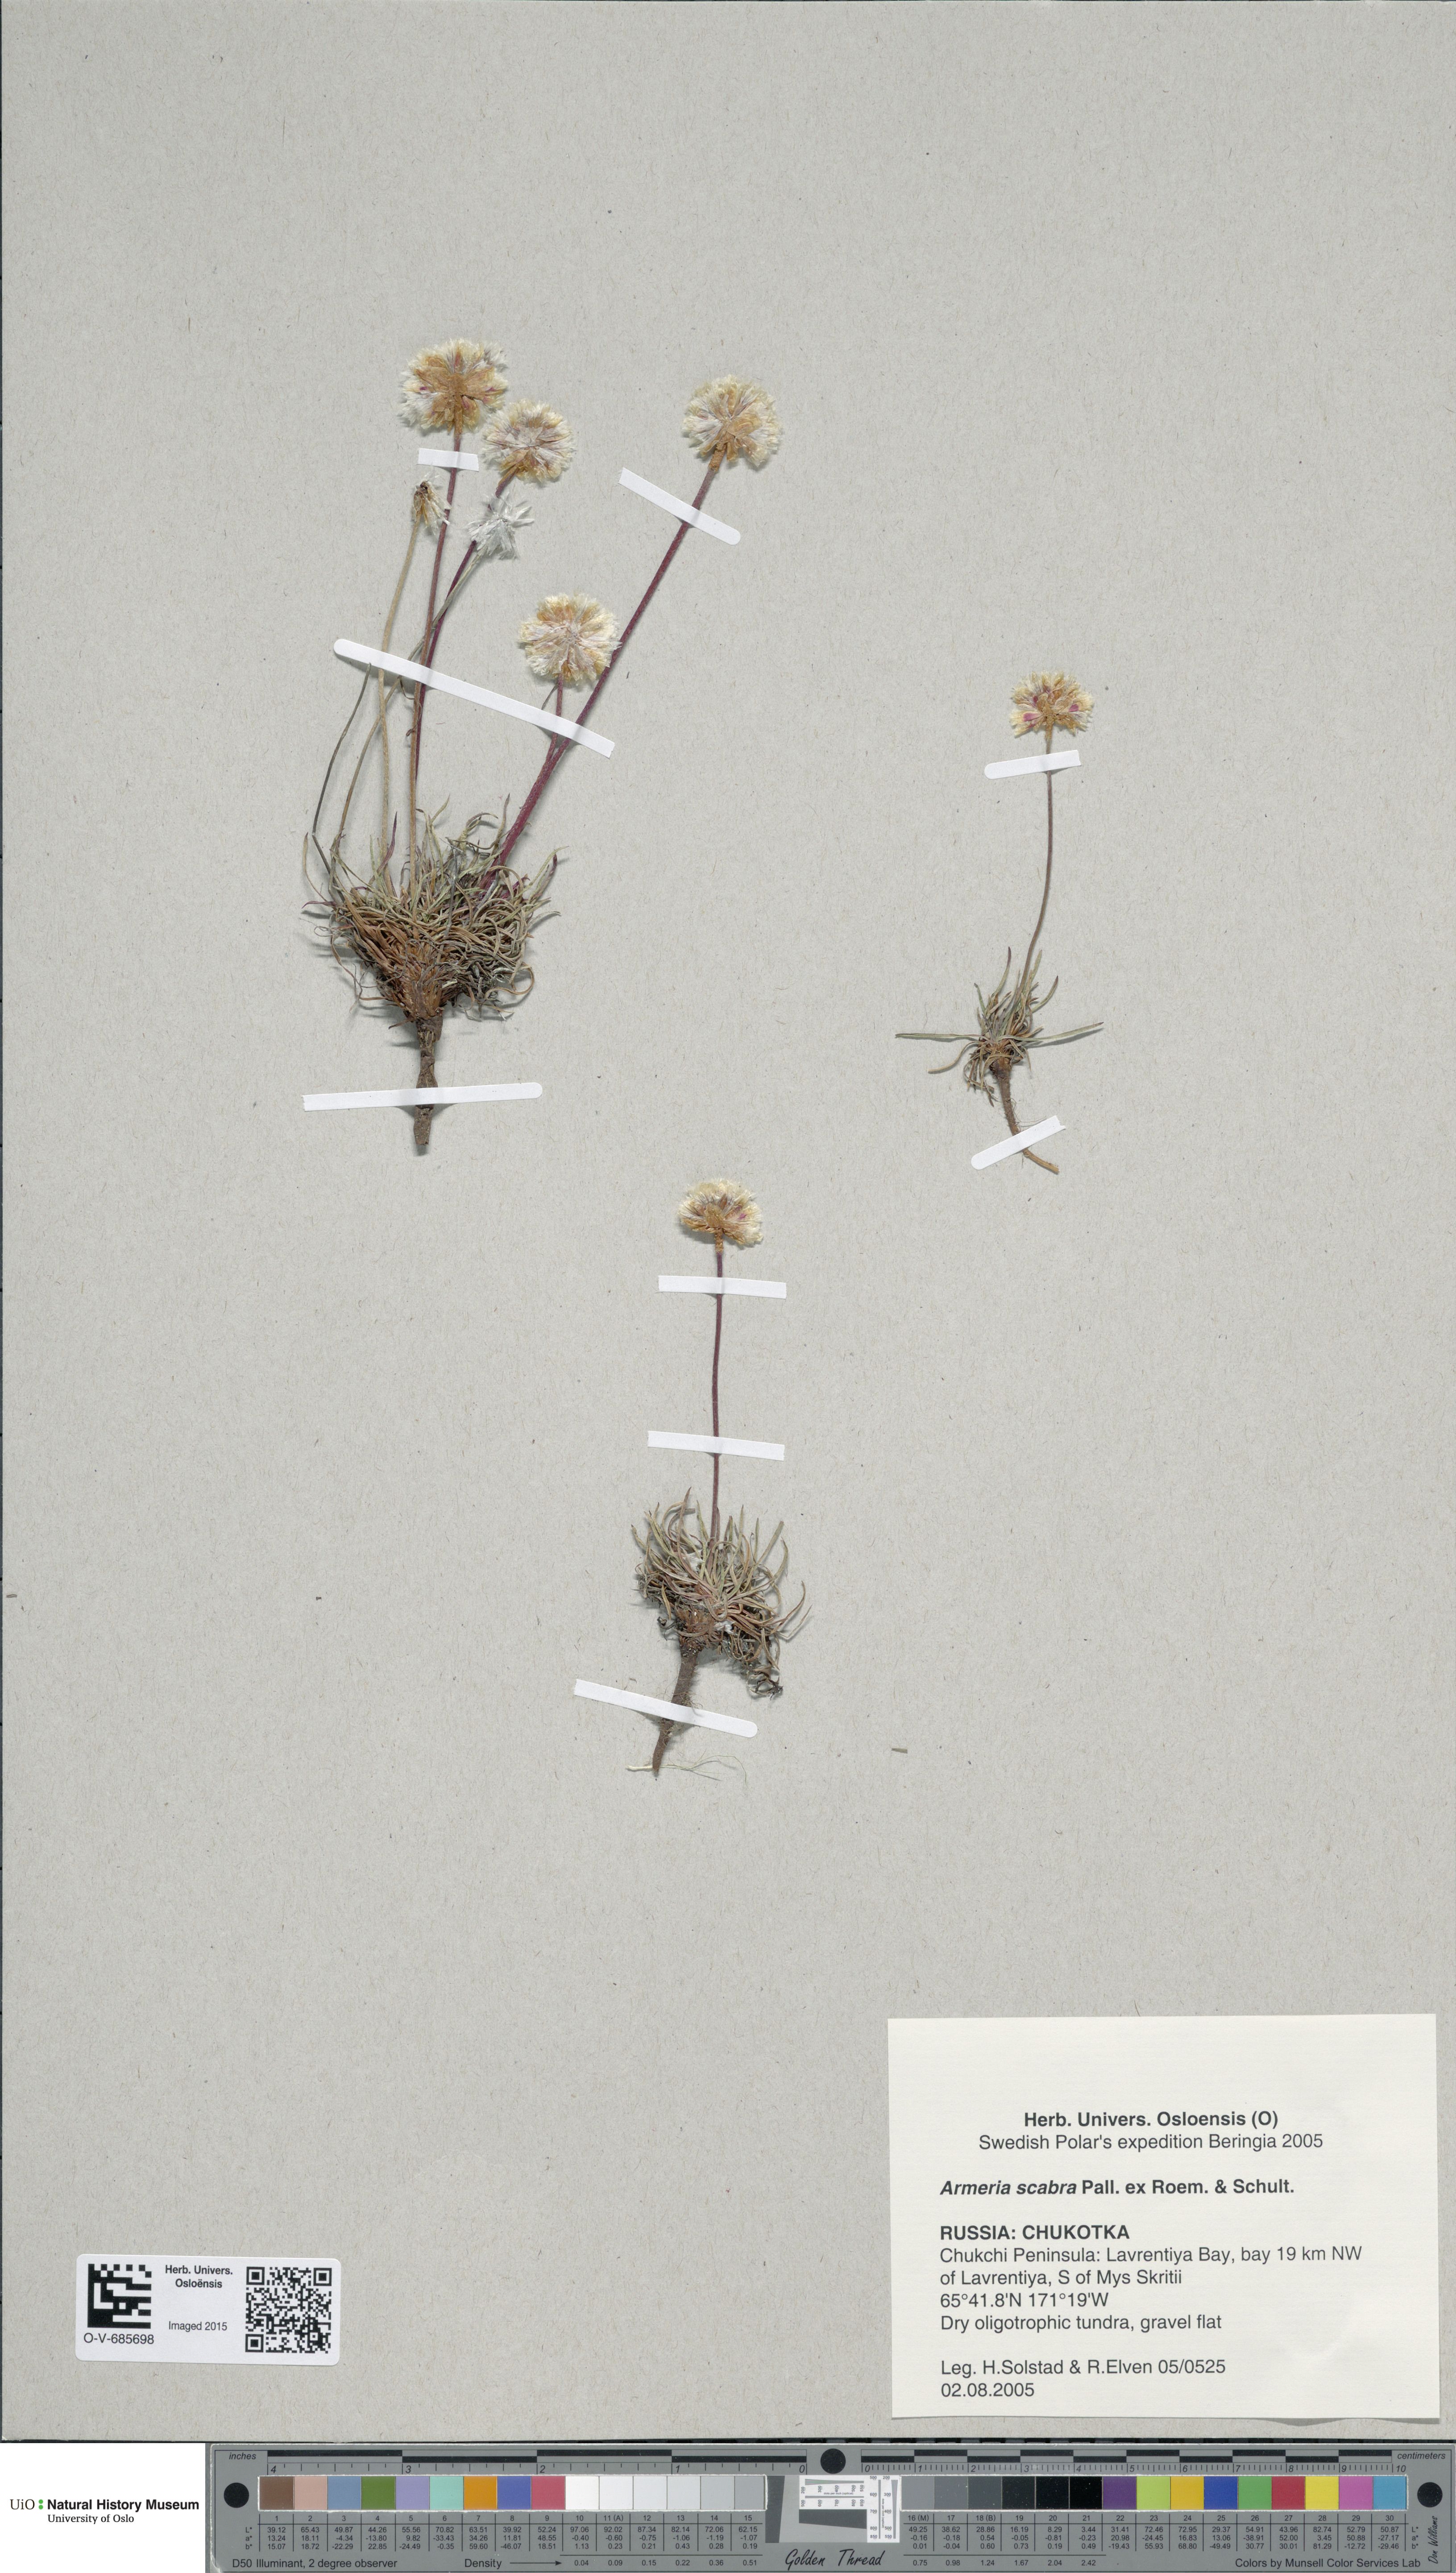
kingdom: Plantae
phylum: Tracheophyta
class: Magnoliopsida
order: Caryophyllales
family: Plumbaginaceae
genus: Armeria
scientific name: Armeria maritima
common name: Thrift
